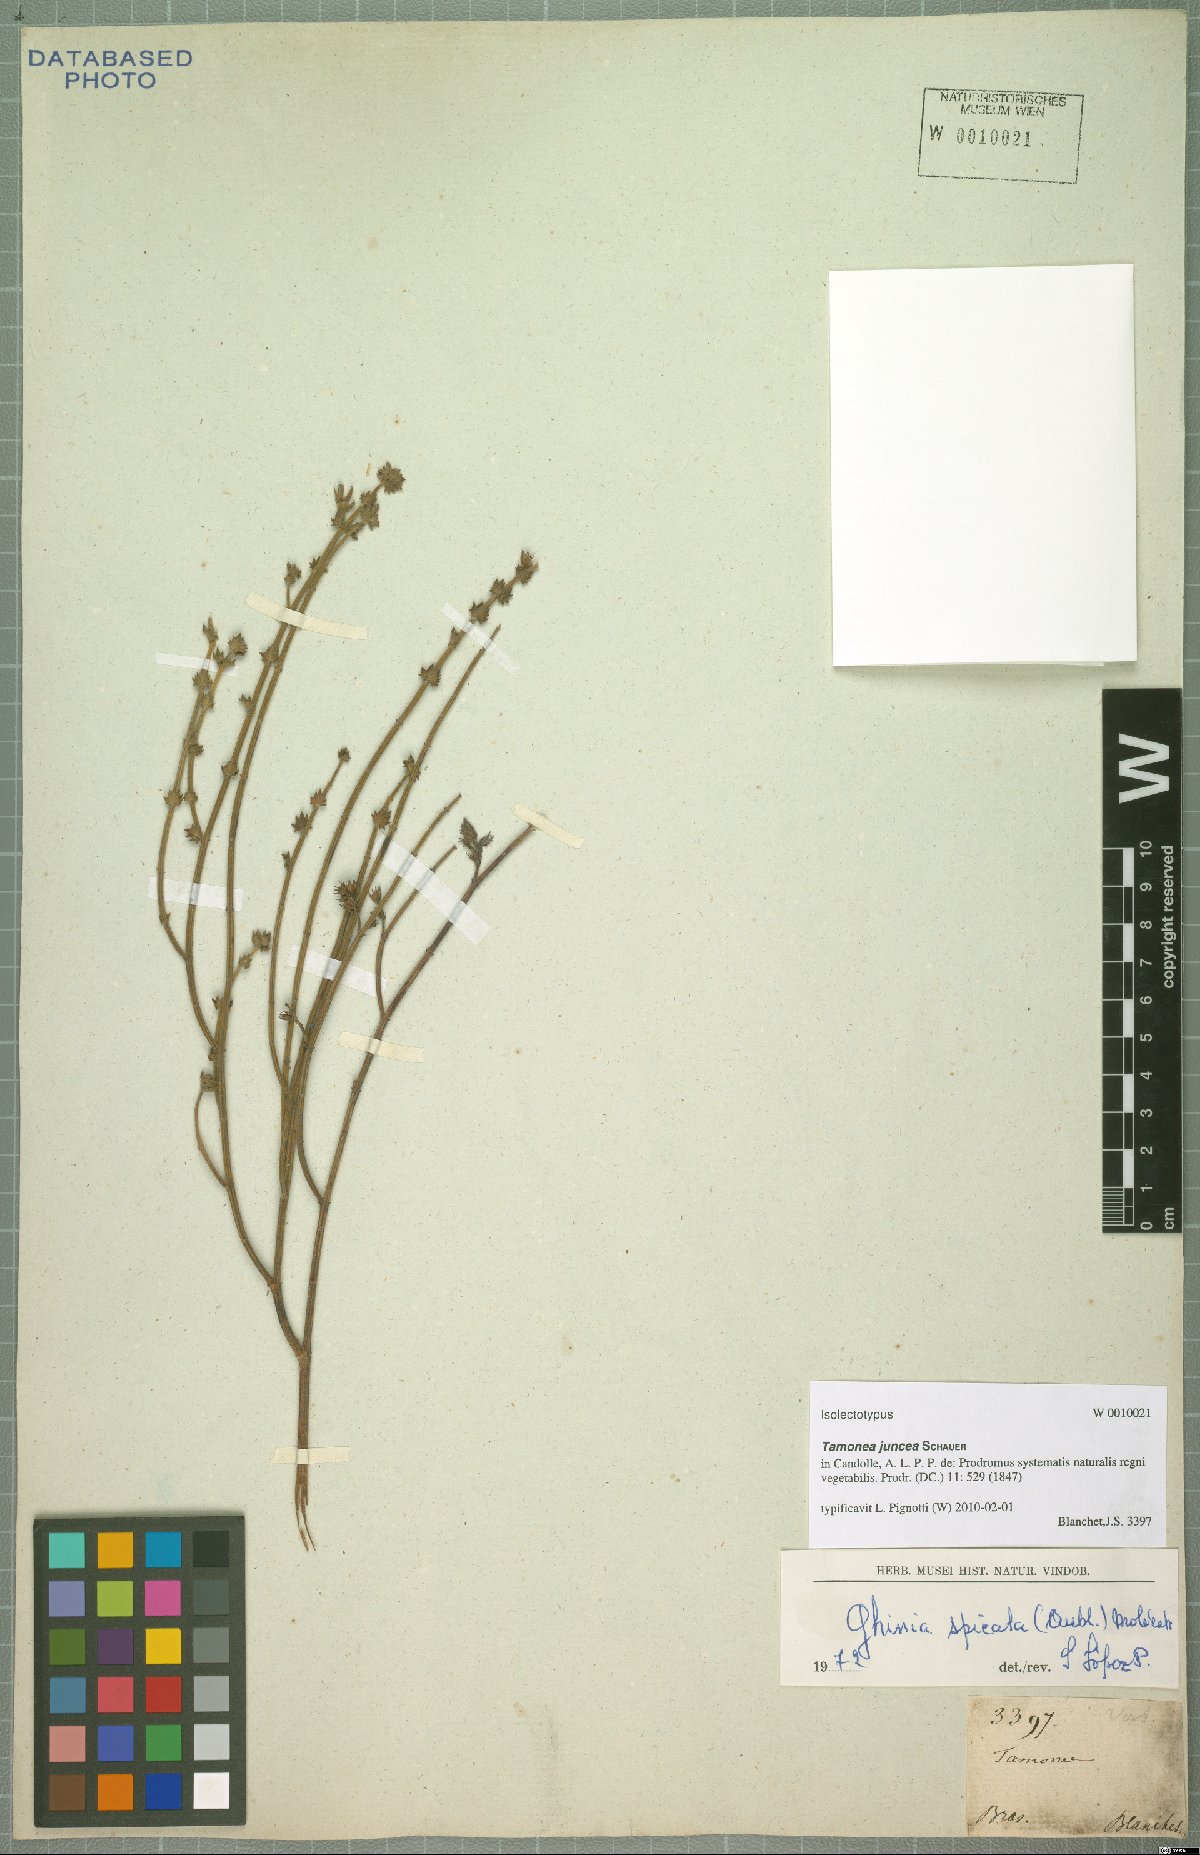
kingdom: Plantae
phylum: Tracheophyta
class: Magnoliopsida
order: Lamiales
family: Verbenaceae
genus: Tamonea
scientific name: Tamonea juncea
